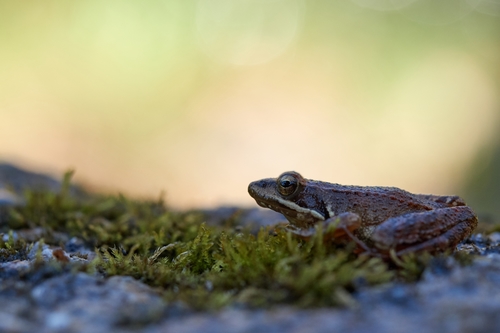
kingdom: Animalia
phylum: Chordata
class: Amphibia
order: Anura
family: Ranidae
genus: Rana
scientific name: Rana iberica
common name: Iberian frog
